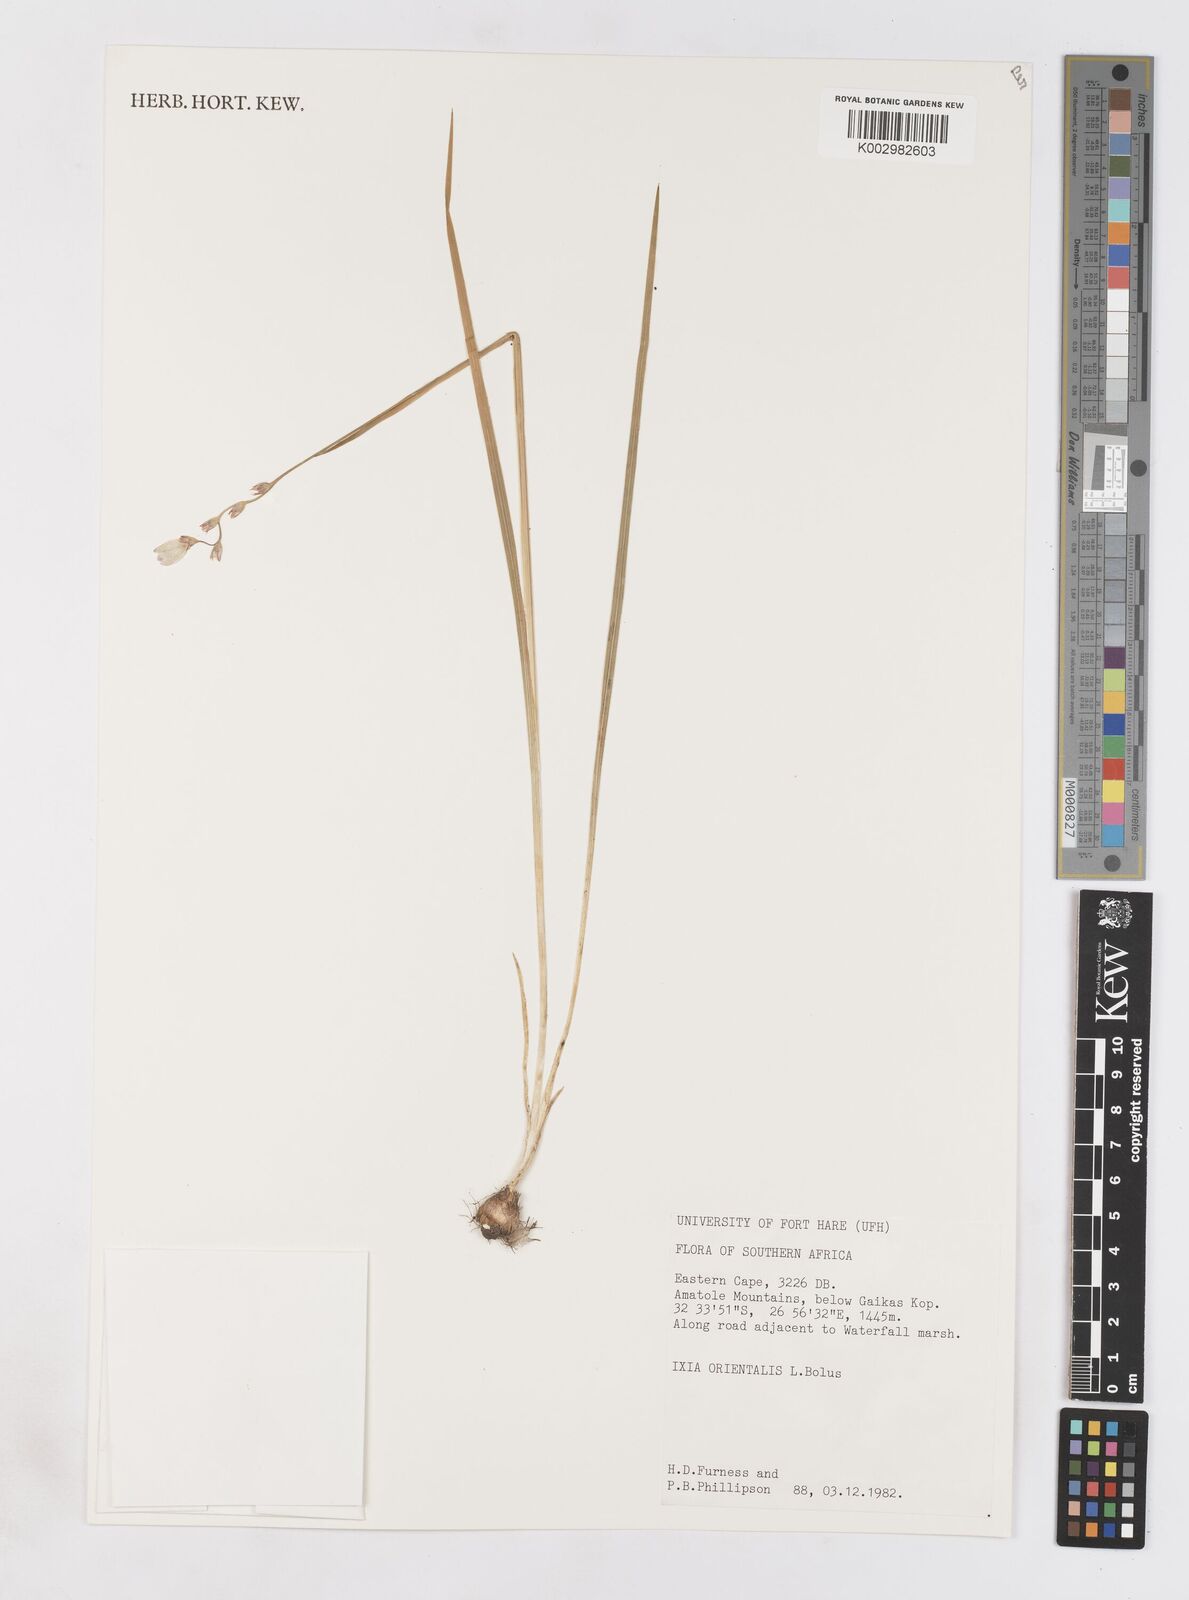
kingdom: Plantae
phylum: Tracheophyta
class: Liliopsida
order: Asparagales
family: Iridaceae
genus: Ixia
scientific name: Ixia orientalis
